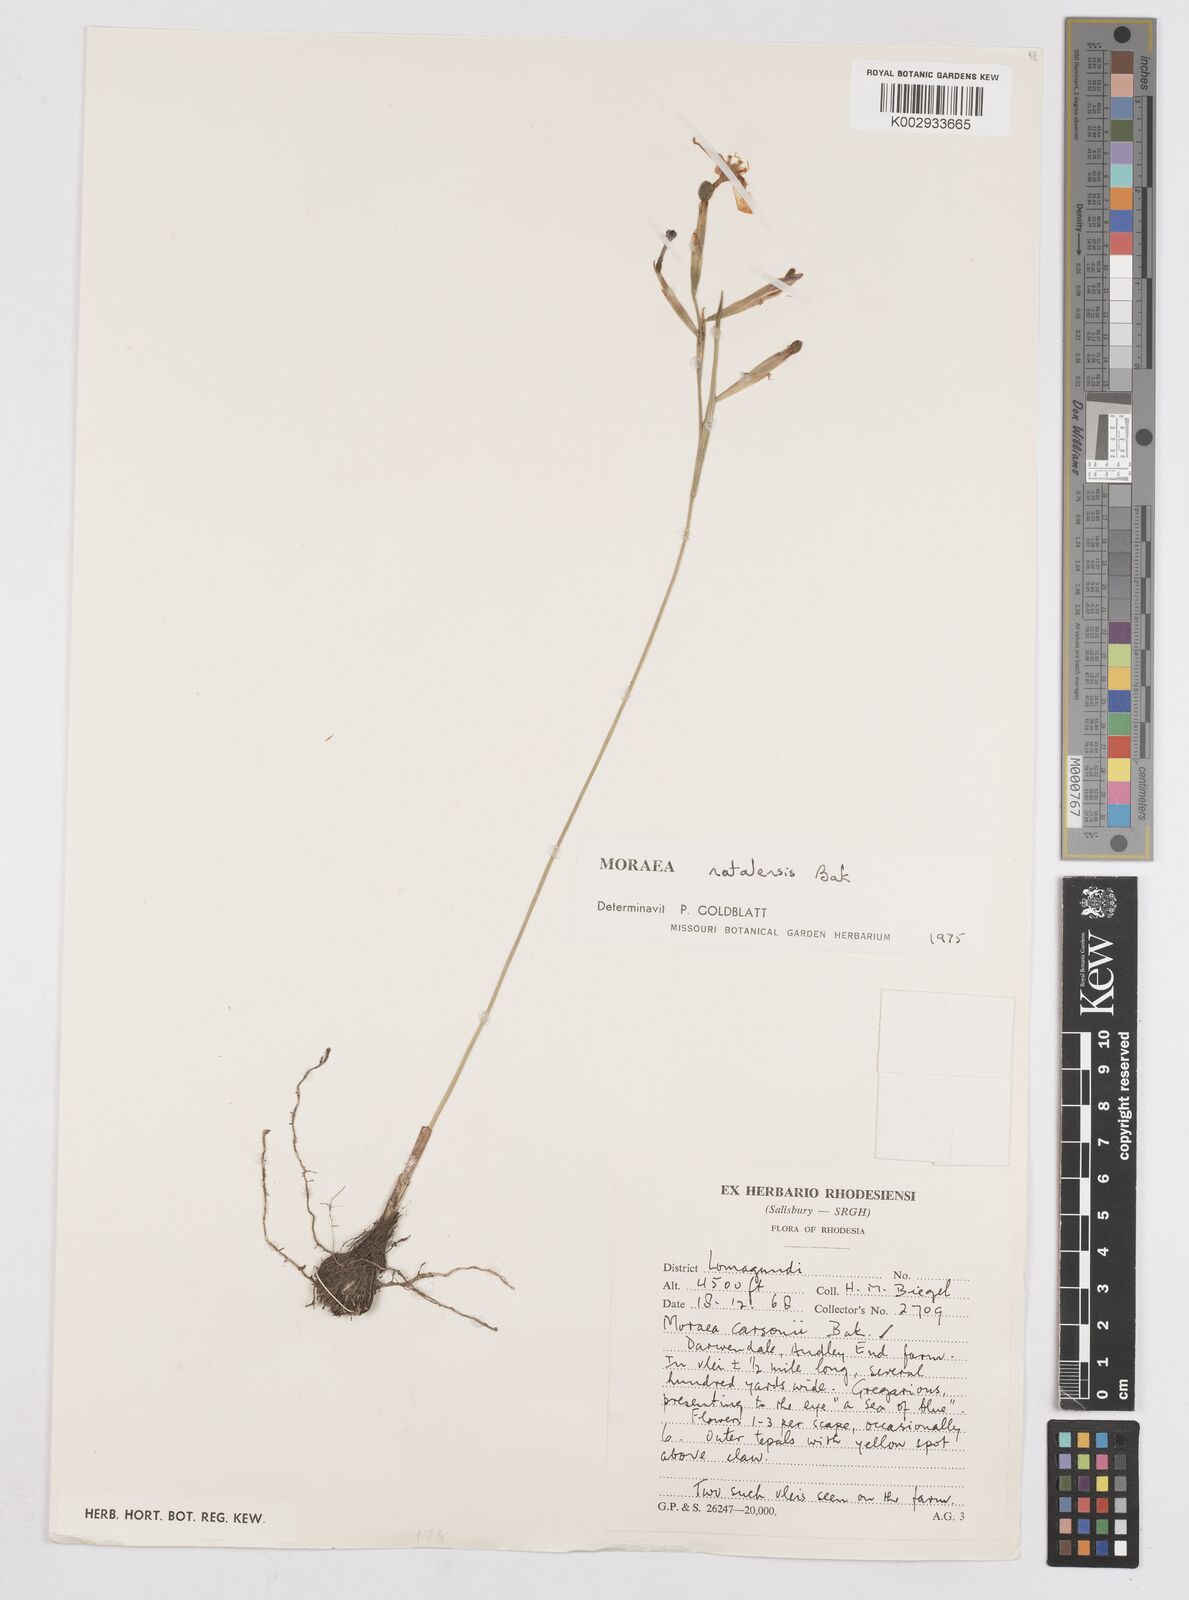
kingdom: Plantae
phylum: Tracheophyta
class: Liliopsida
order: Asparagales
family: Iridaceae
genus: Moraea
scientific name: Moraea natalensis
